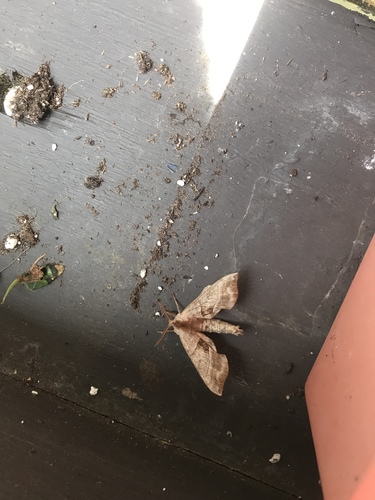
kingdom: Animalia
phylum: Arthropoda
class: Insecta
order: Lepidoptera
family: Sphingidae
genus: Amorpha
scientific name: Amorpha juglandis
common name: Walnut sphinx
